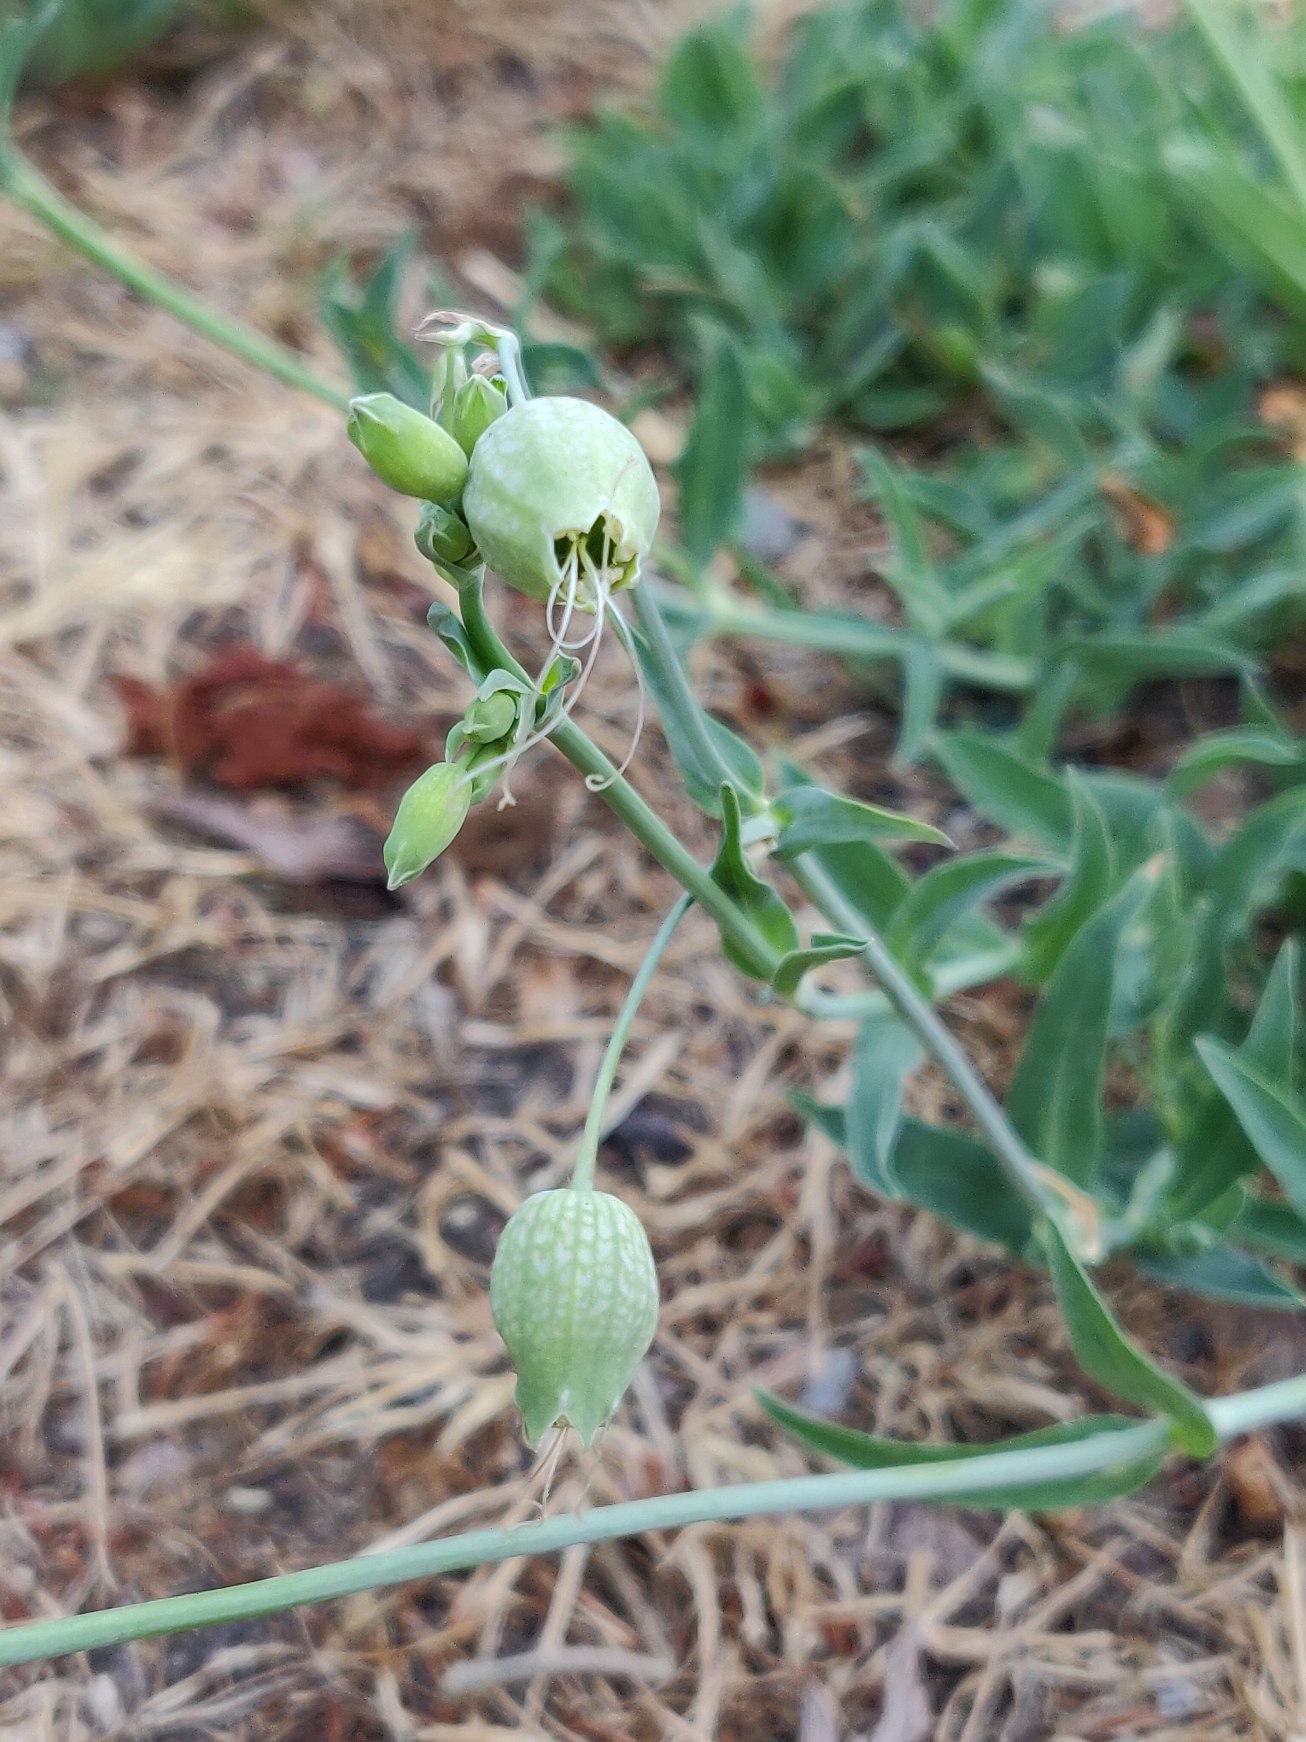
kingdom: Plantae
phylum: Tracheophyta
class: Magnoliopsida
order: Caryophyllales
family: Caryophyllaceae
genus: Silene
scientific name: Silene vulgaris
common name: Blæresmælde
